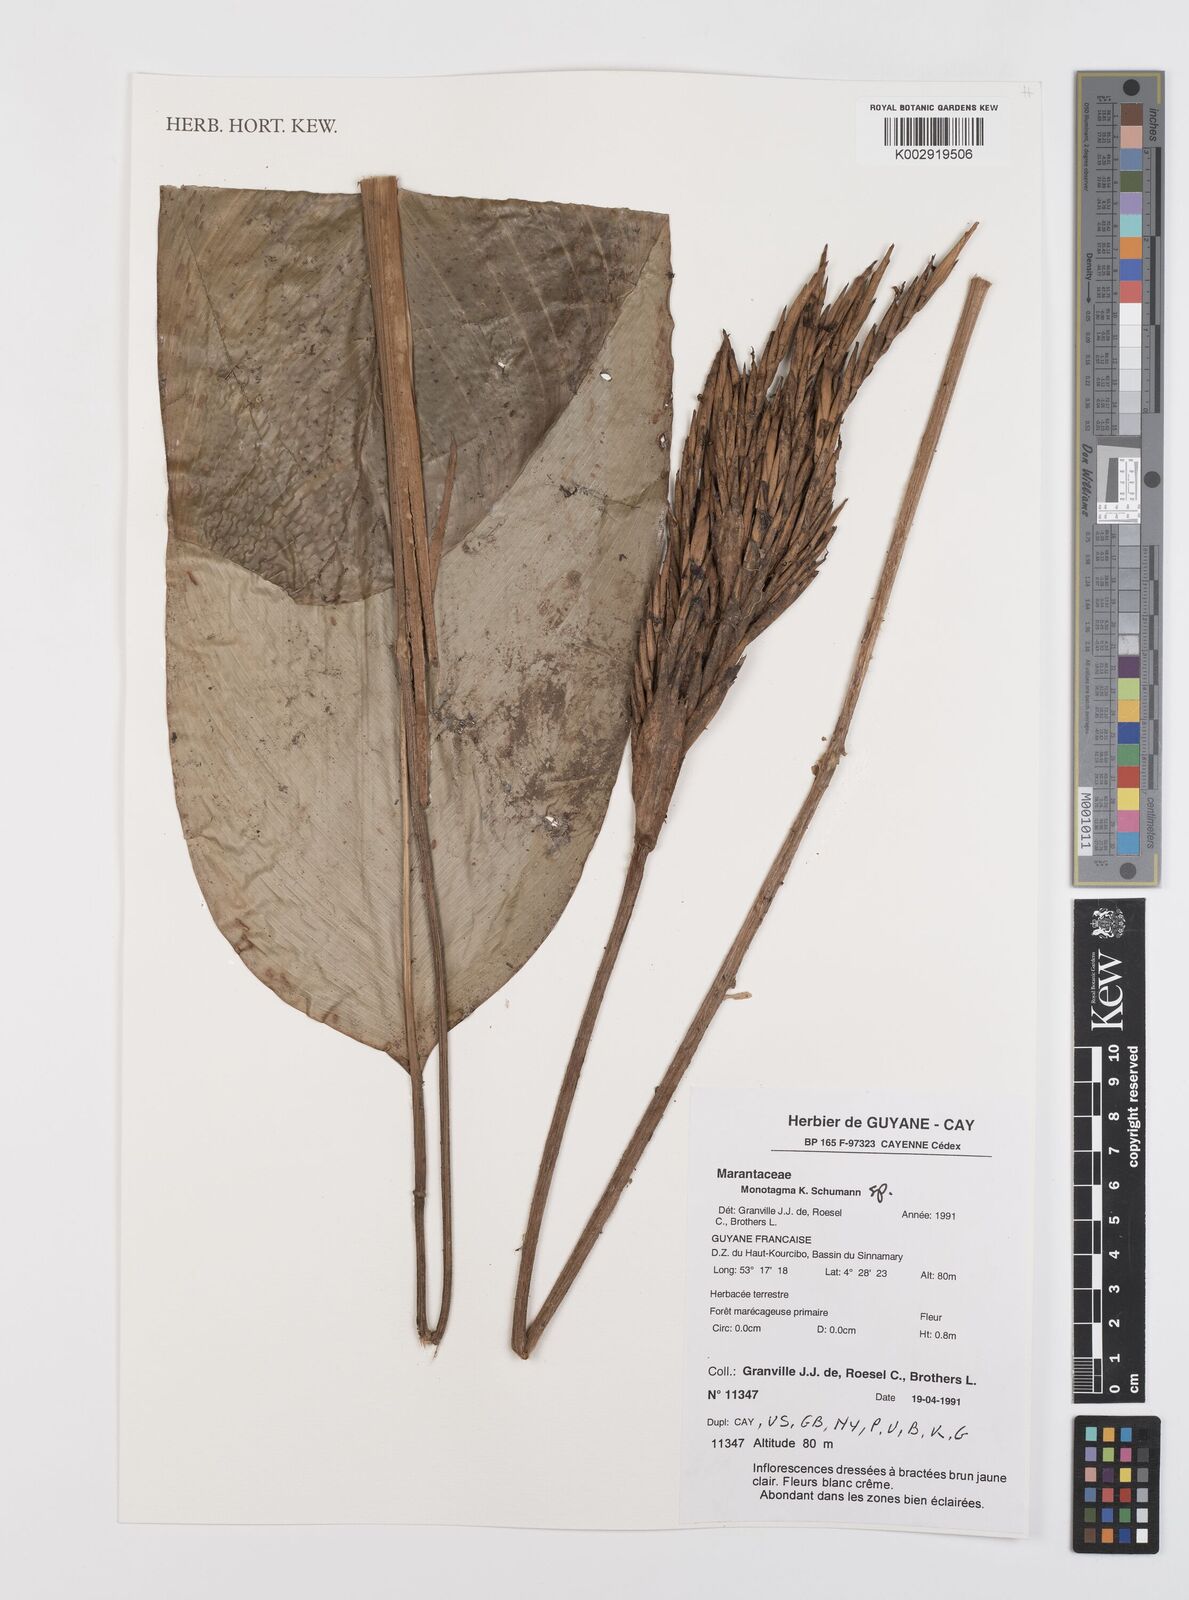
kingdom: Plantae
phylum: Tracheophyta
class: Liliopsida
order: Zingiberales
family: Marantaceae
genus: Monotagma
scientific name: Monotagma
